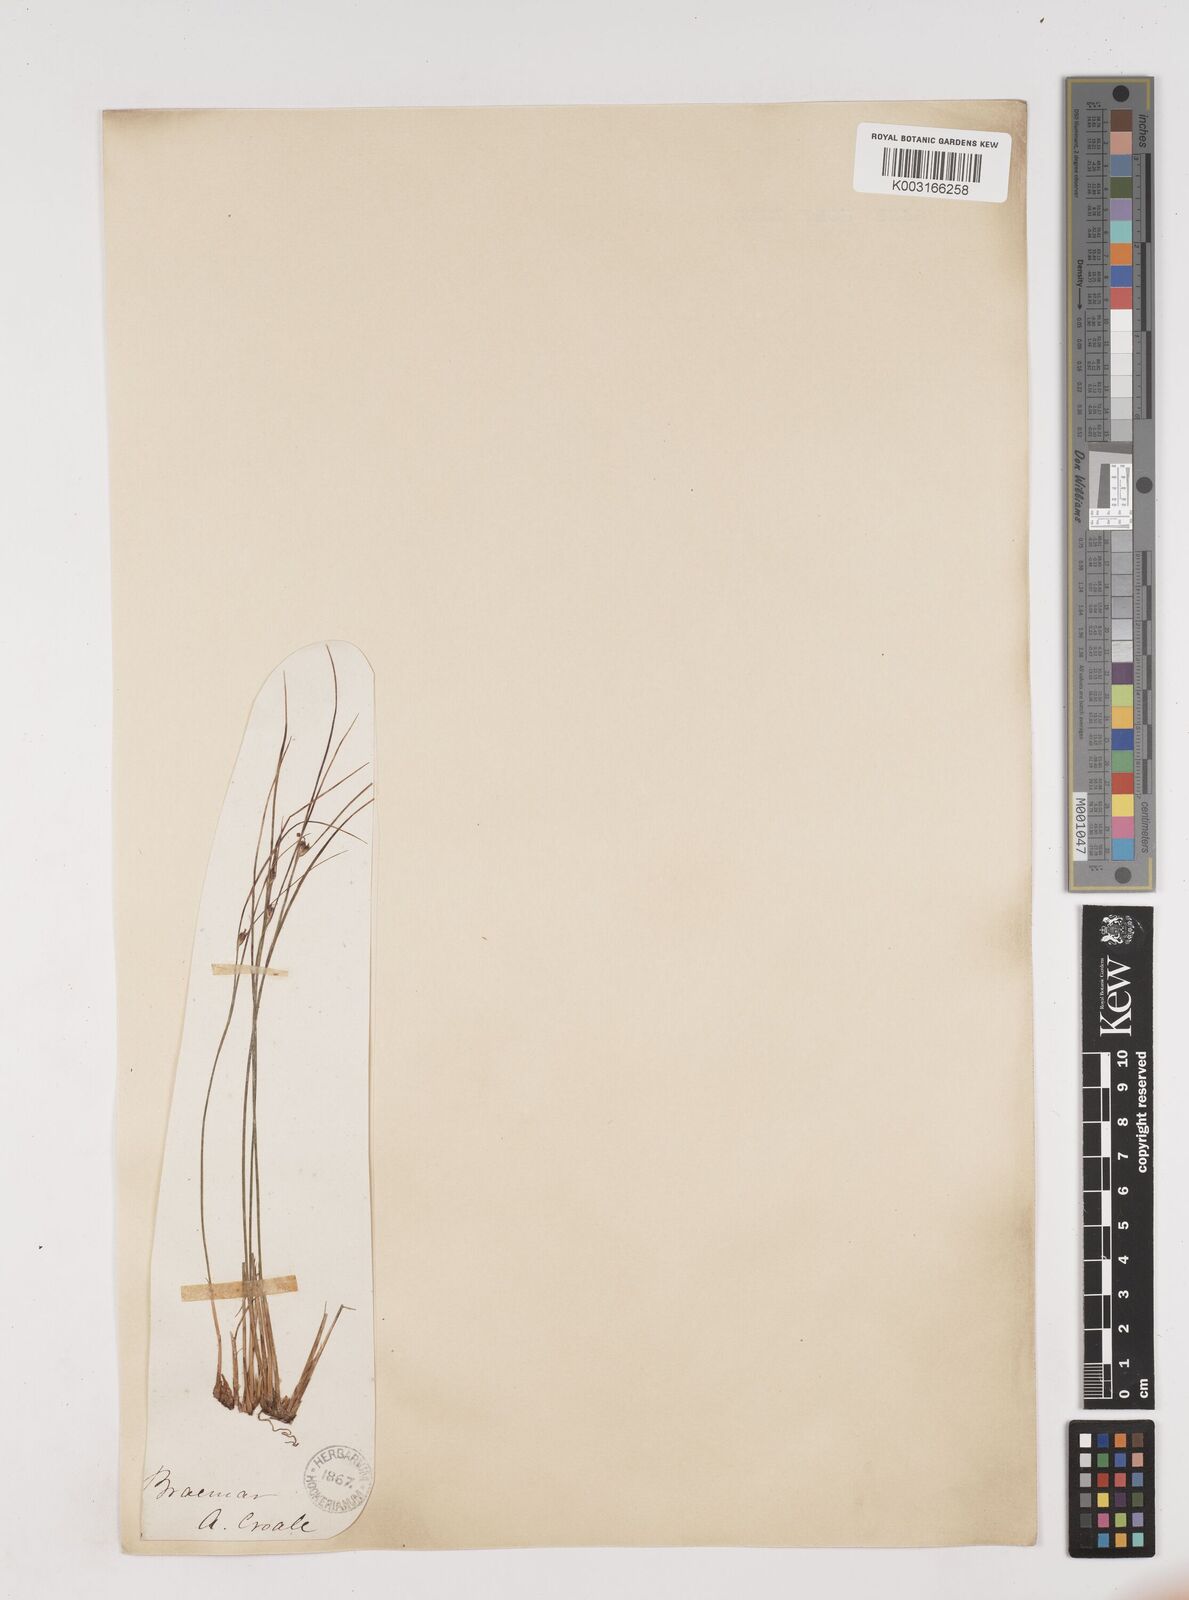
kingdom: Plantae
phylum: Tracheophyta
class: Liliopsida
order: Poales
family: Juncaceae
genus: Oreojuncus
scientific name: Oreojuncus trifidus
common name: Highland rush
